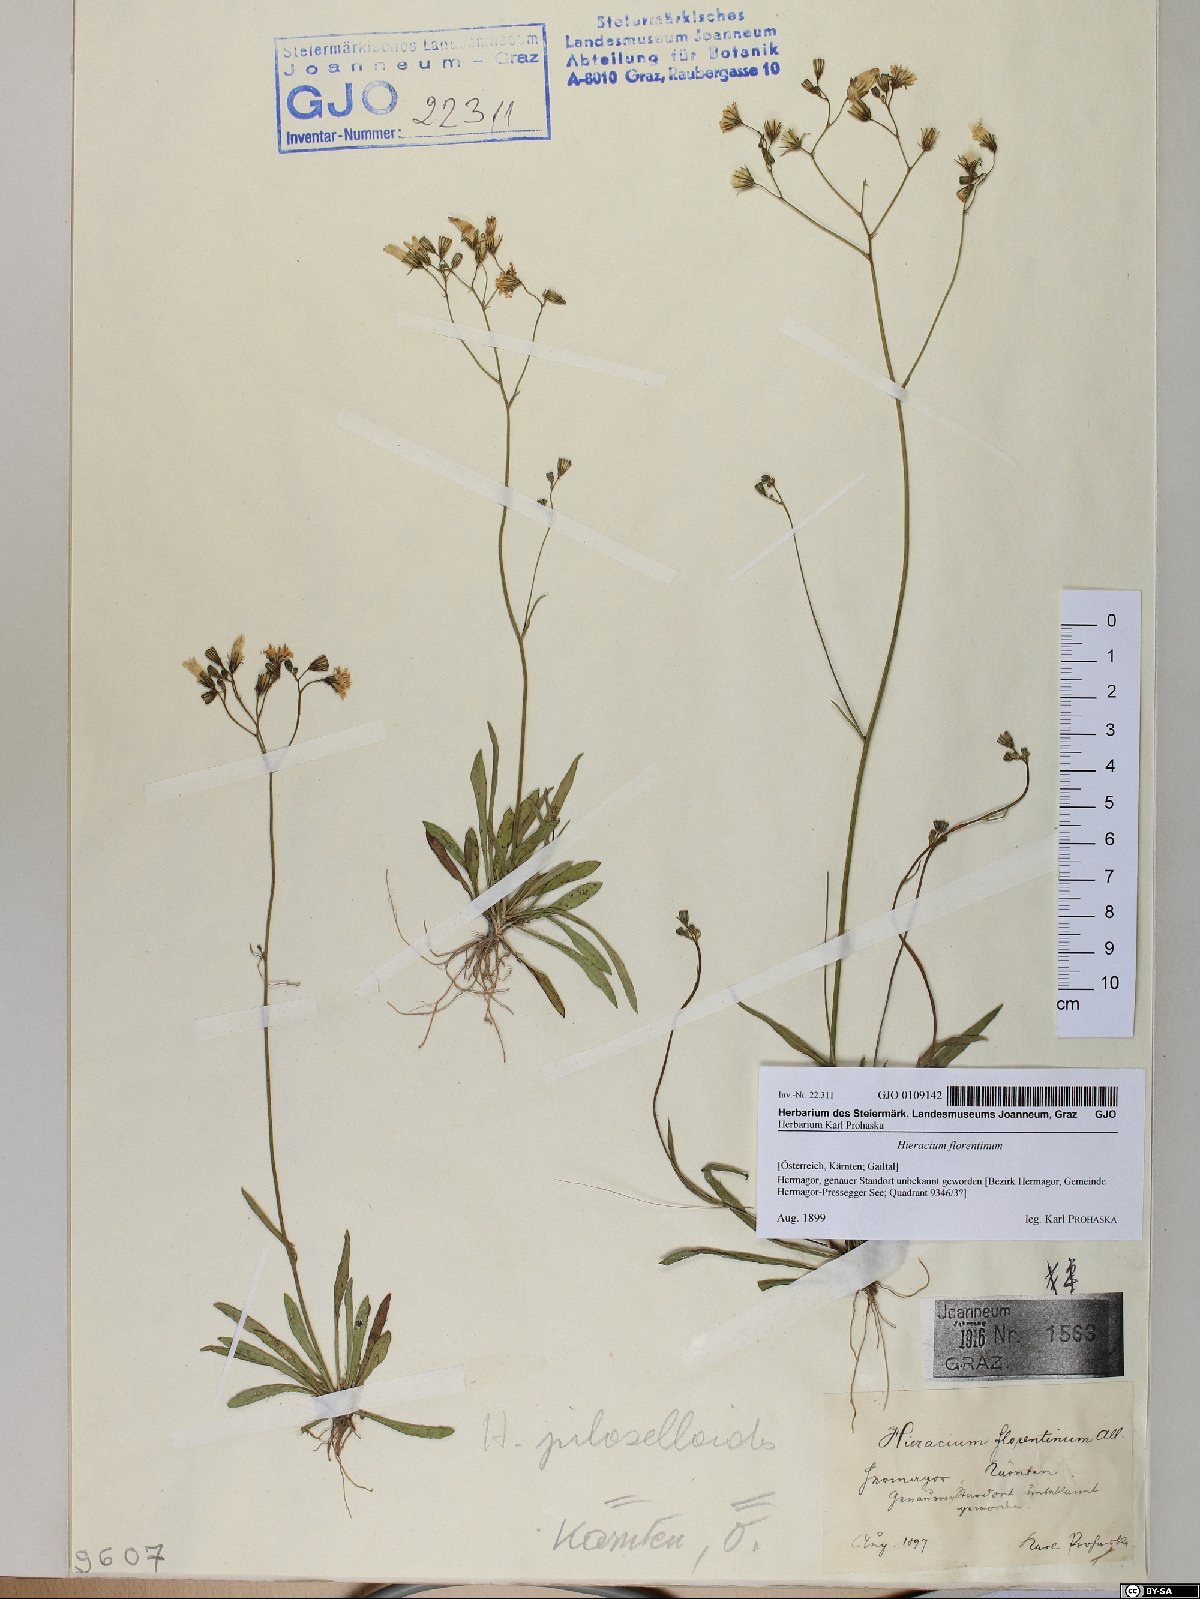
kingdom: Plantae
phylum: Tracheophyta
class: Magnoliopsida
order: Asterales
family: Asteraceae
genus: Pilosella
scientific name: Pilosella piloselloides
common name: Glaucous king-devil
